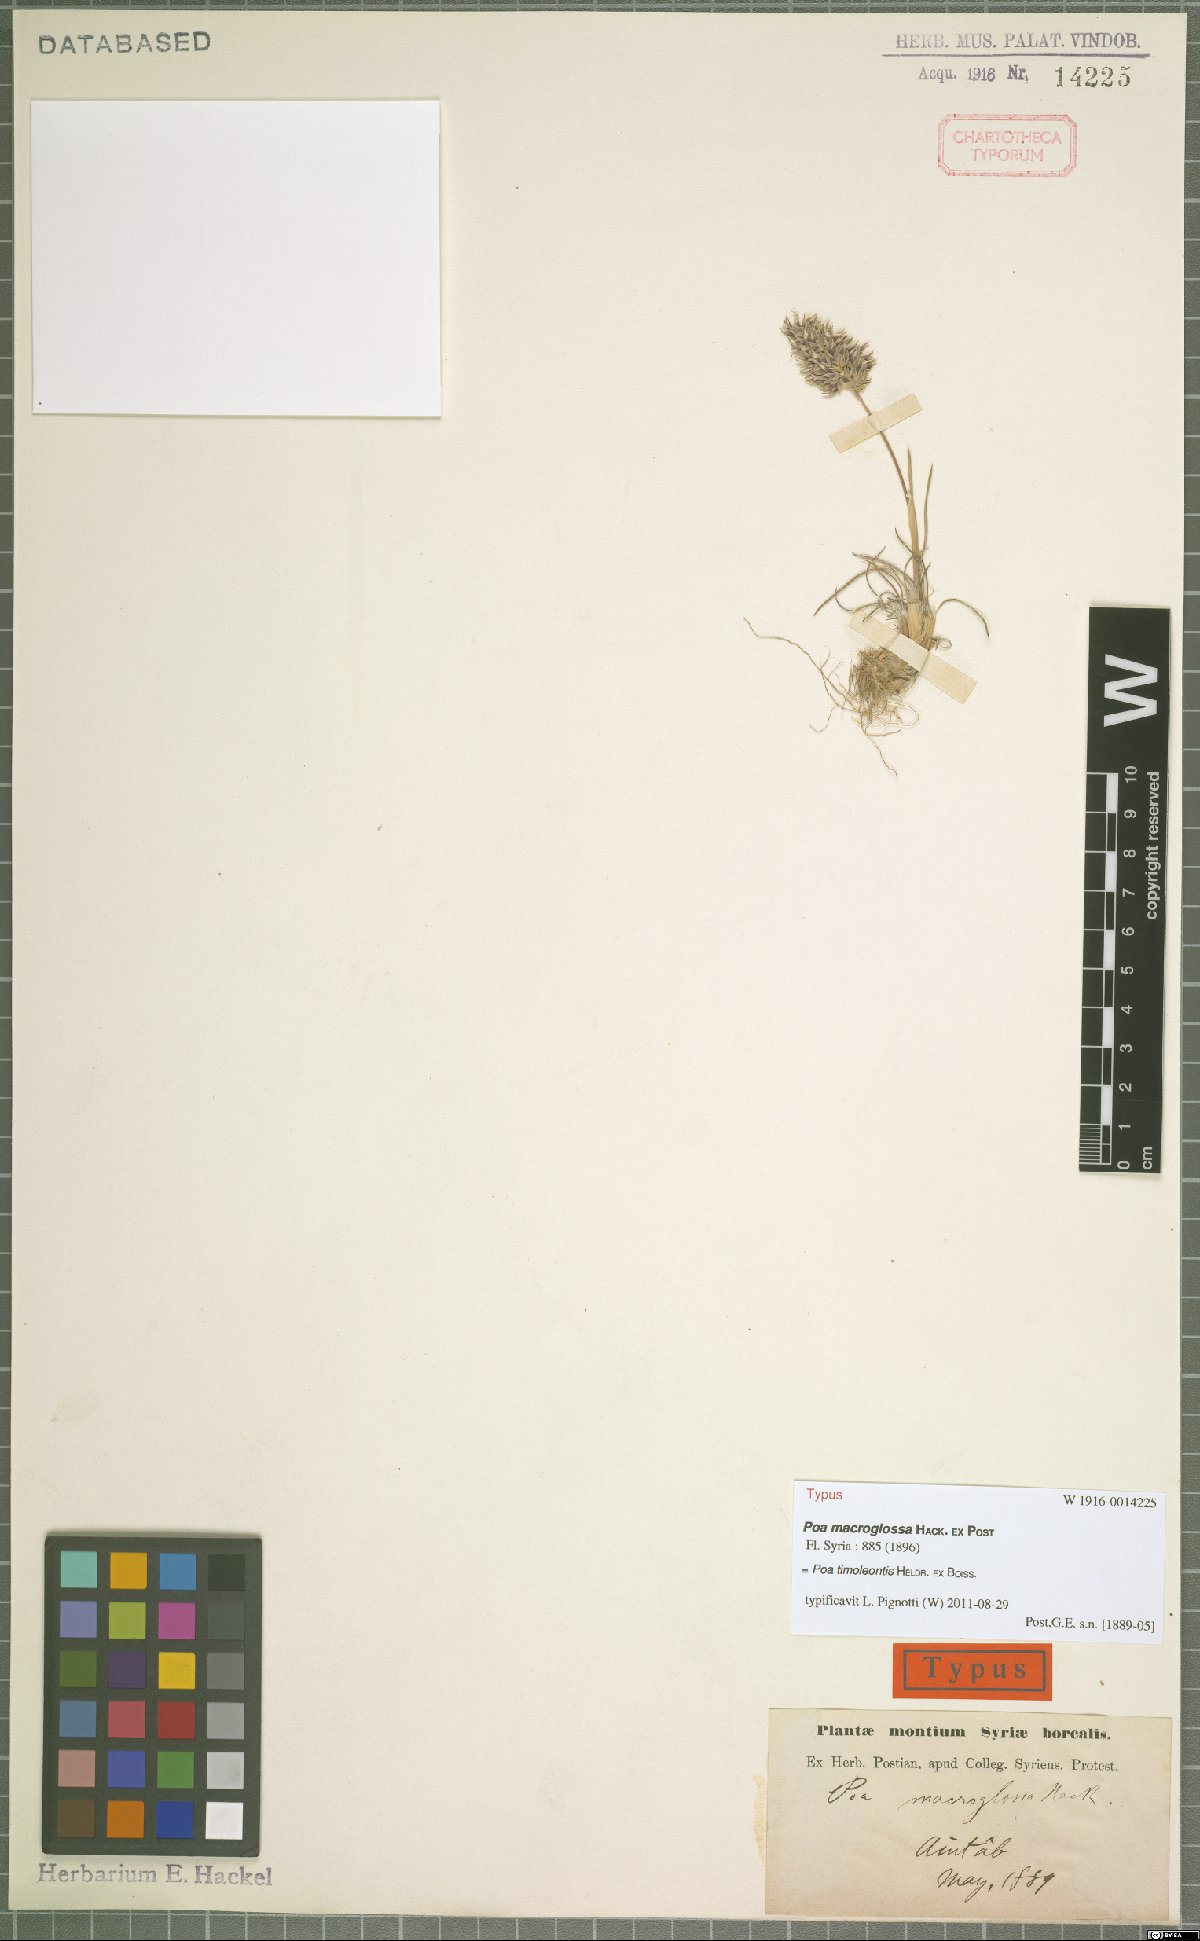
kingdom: Plantae
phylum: Tracheophyta
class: Liliopsida
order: Poales
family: Poaceae
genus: Poa
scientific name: Poa timoleontis
